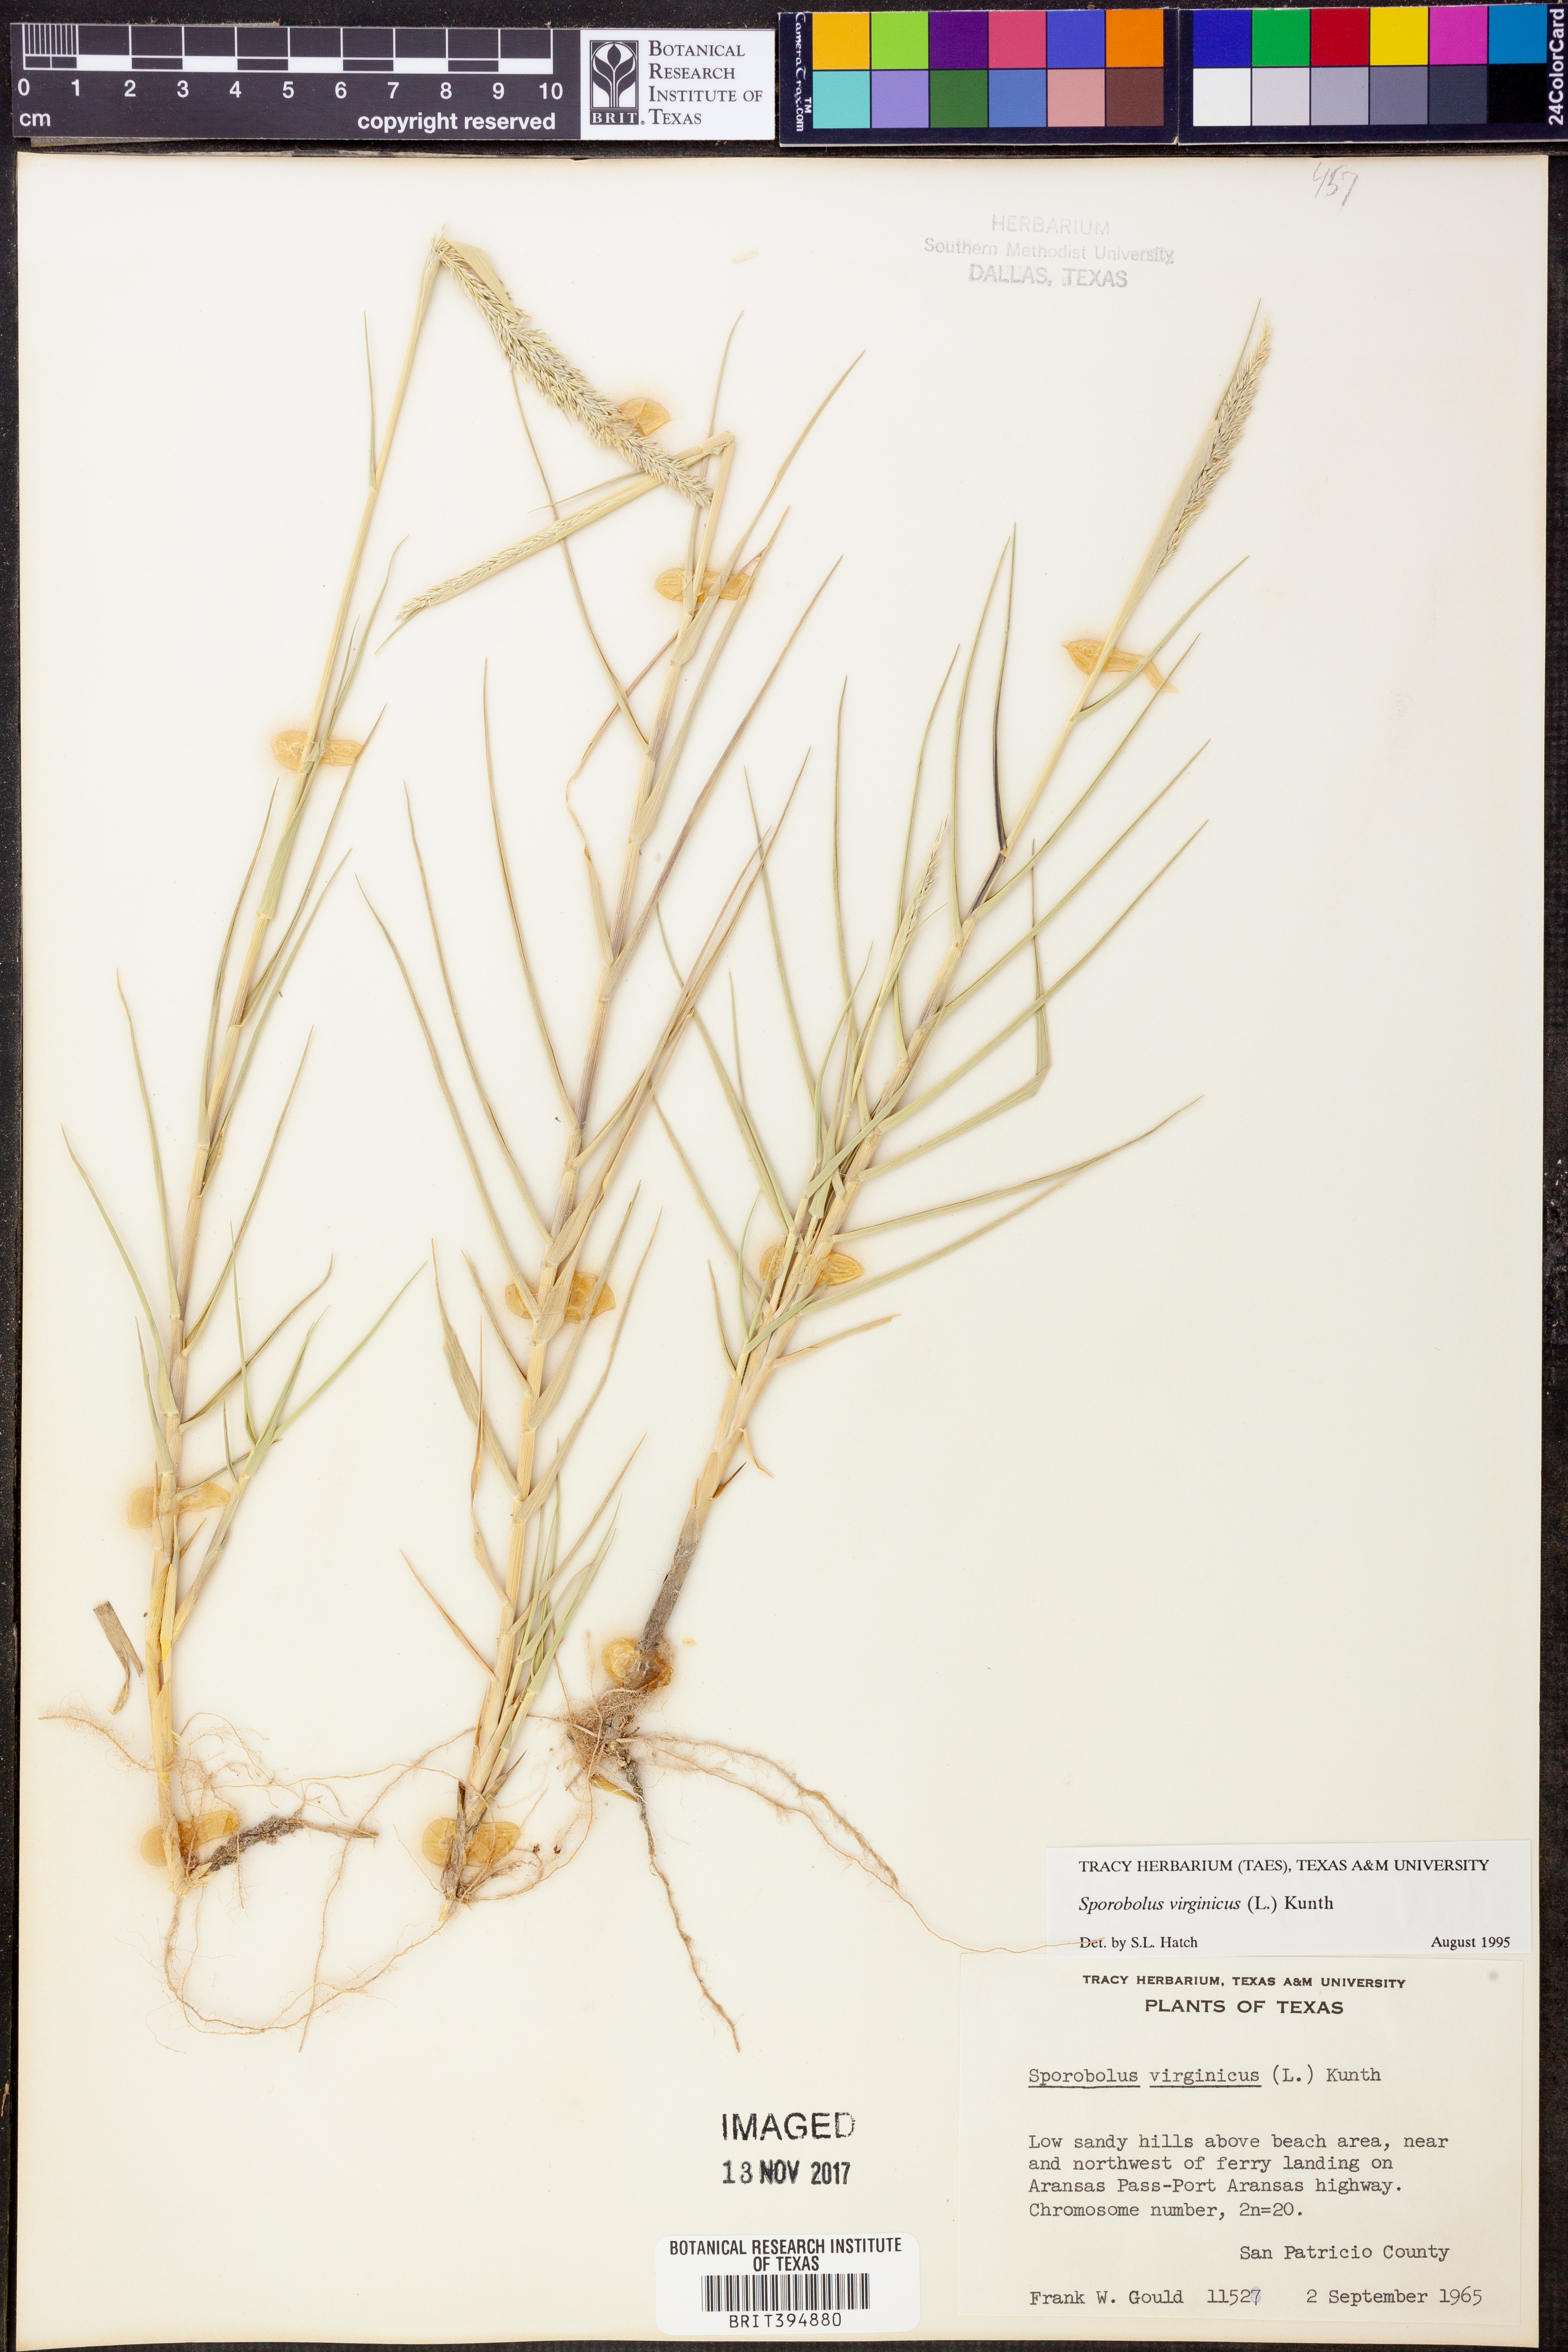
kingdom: Plantae
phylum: Tracheophyta
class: Liliopsida
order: Poales
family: Poaceae
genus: Sporobolus
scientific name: Sporobolus virginicus
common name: Beach dropseed
